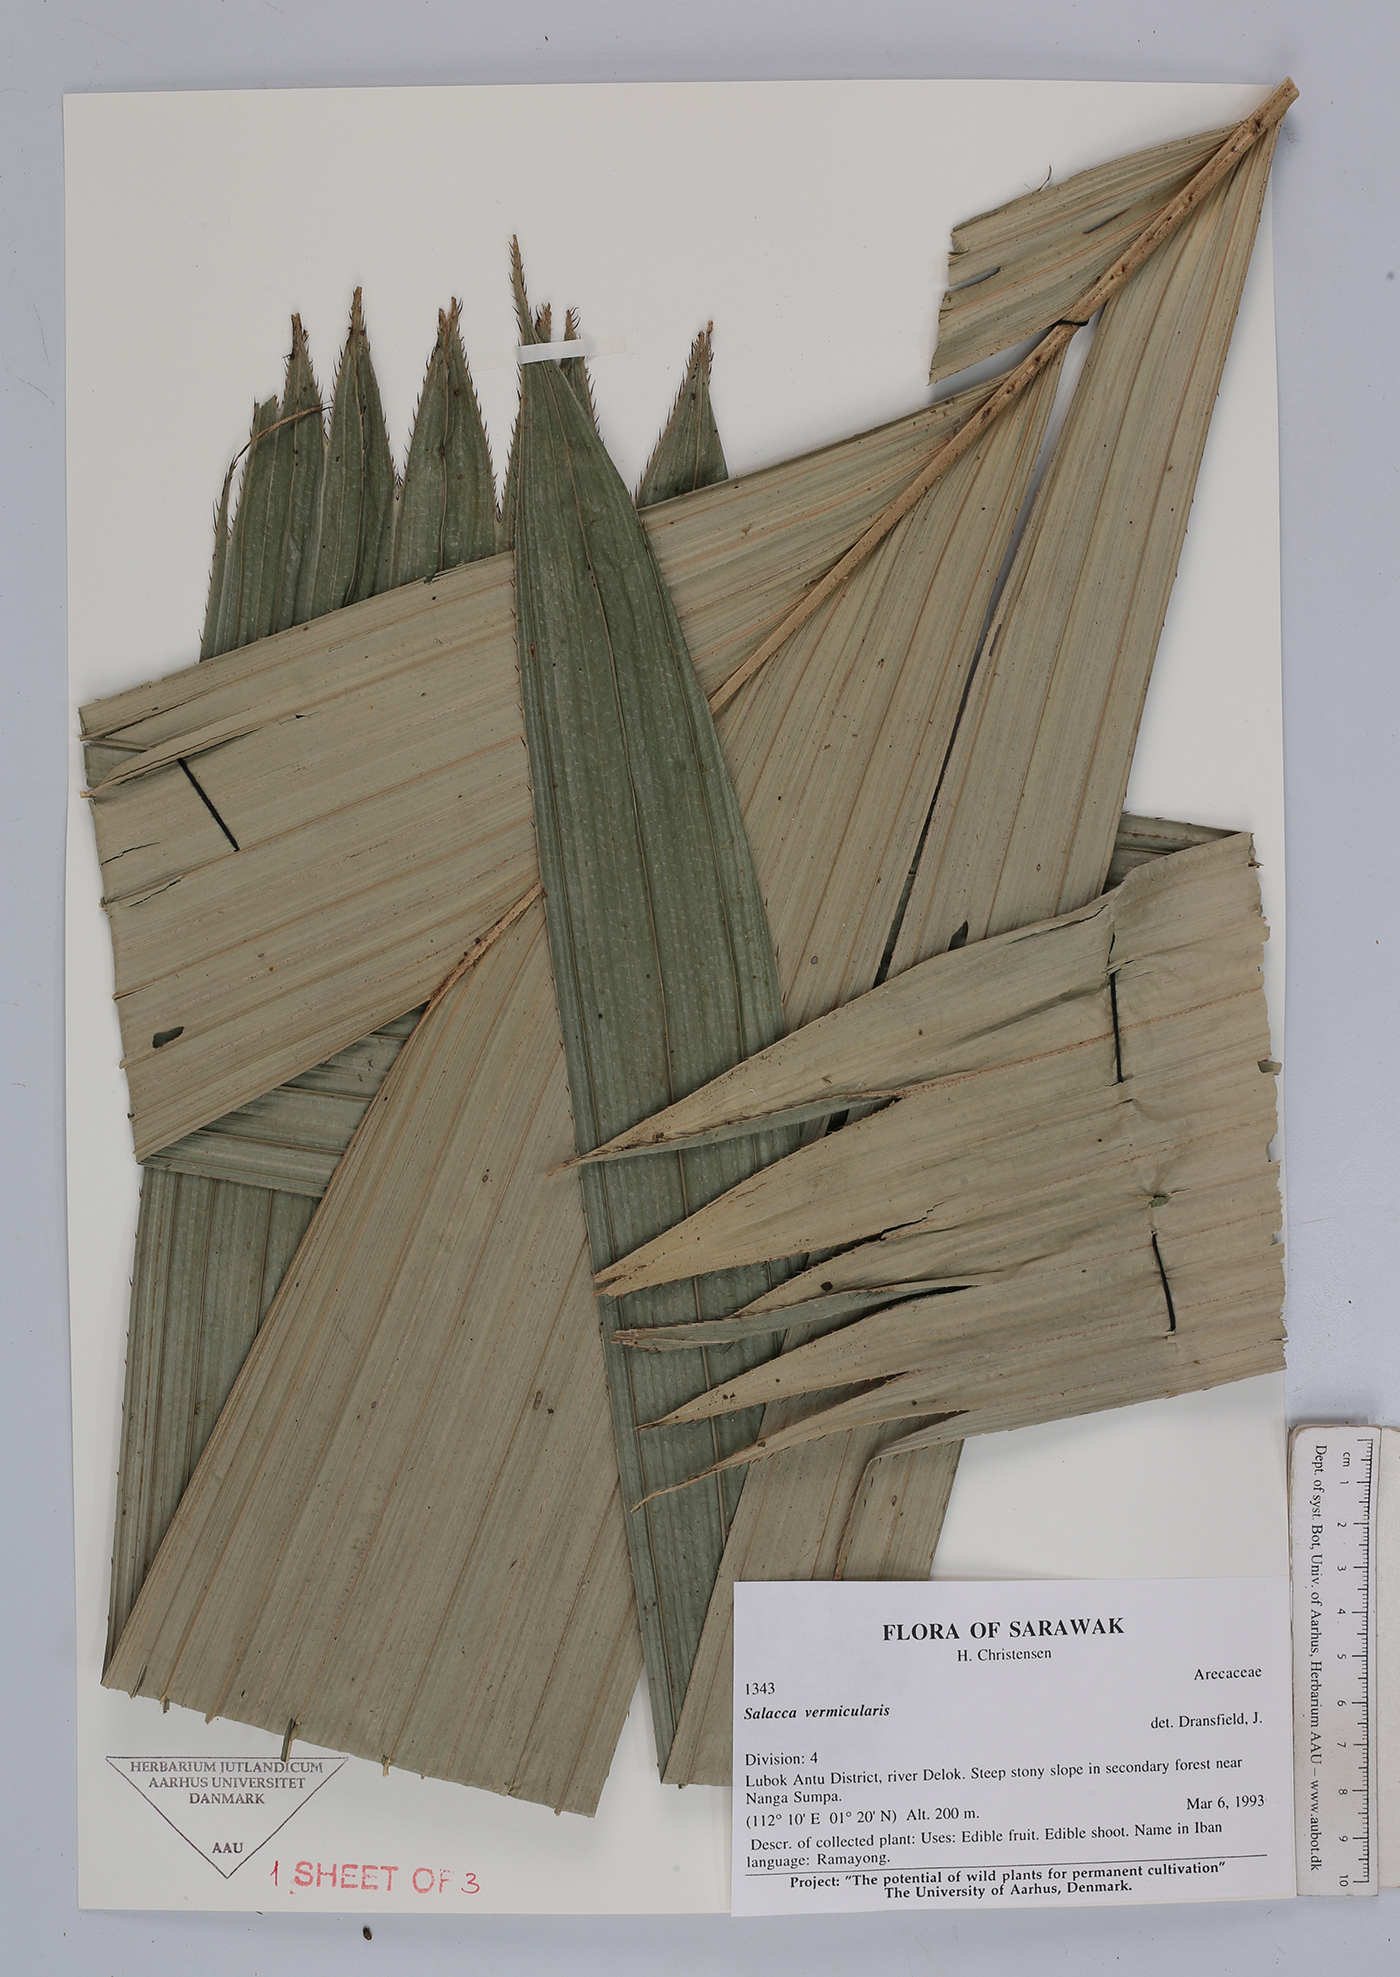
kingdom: Plantae
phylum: Tracheophyta
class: Liliopsida
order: Arecales
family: Arecaceae
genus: Salacca
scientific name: Salacca vermicularis
